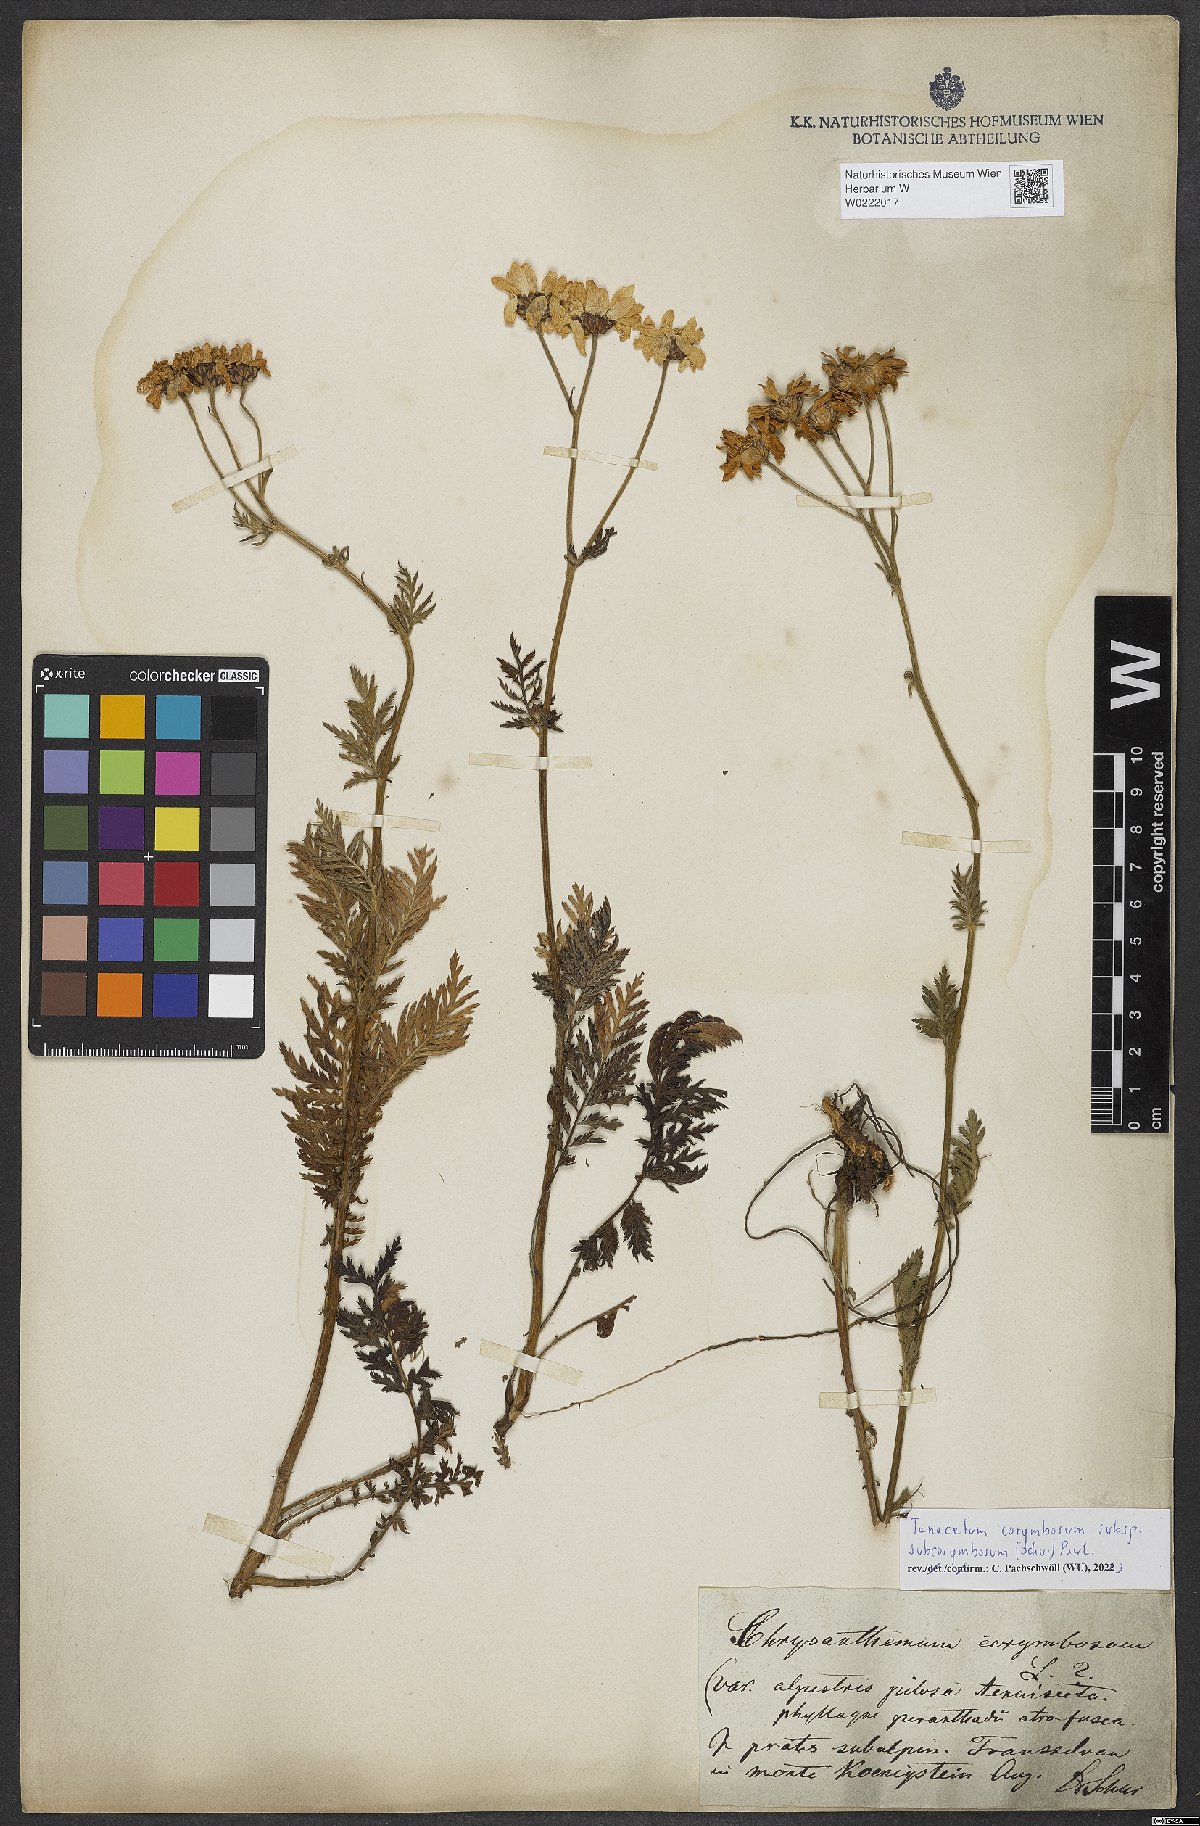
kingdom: Plantae
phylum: Tracheophyta
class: Magnoliopsida
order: Asterales
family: Asteraceae
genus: Tanacetum
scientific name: Tanacetum corymbosum
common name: Scentless feverfew
